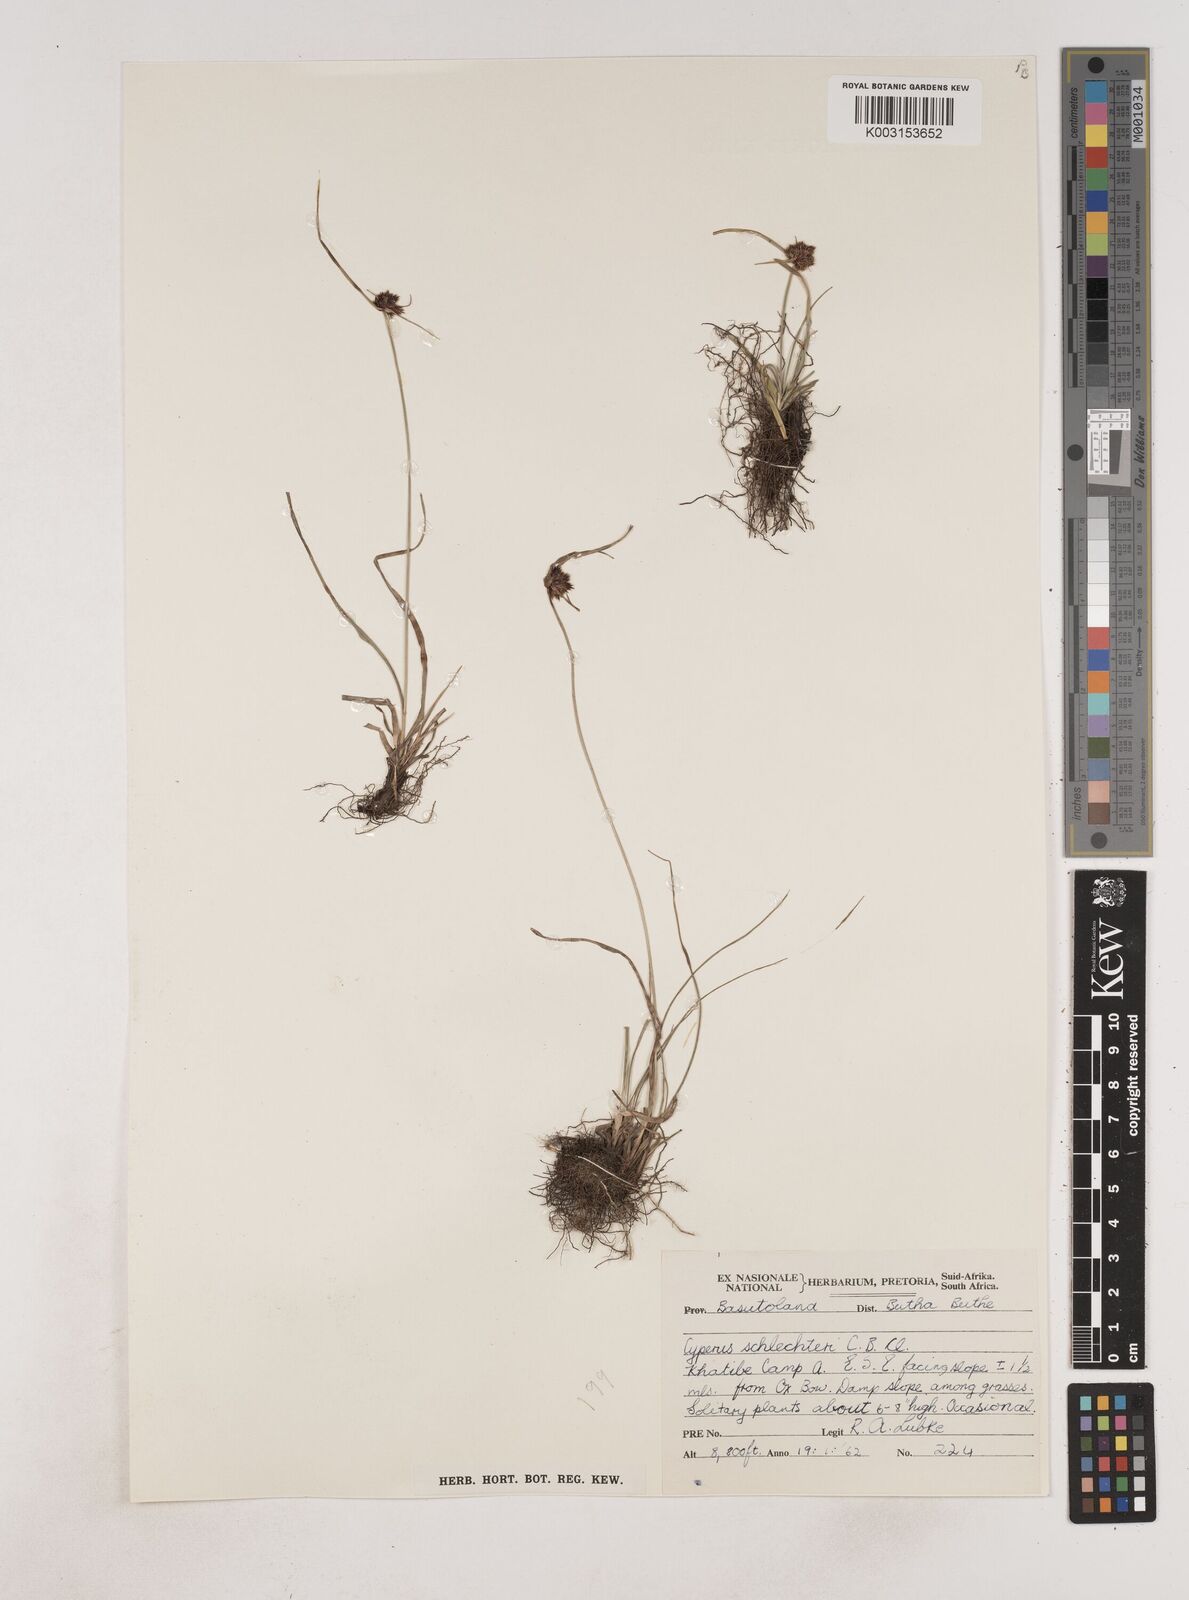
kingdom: Plantae
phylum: Tracheophyta
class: Liliopsida
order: Poales
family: Cyperaceae
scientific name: Cyperaceae
